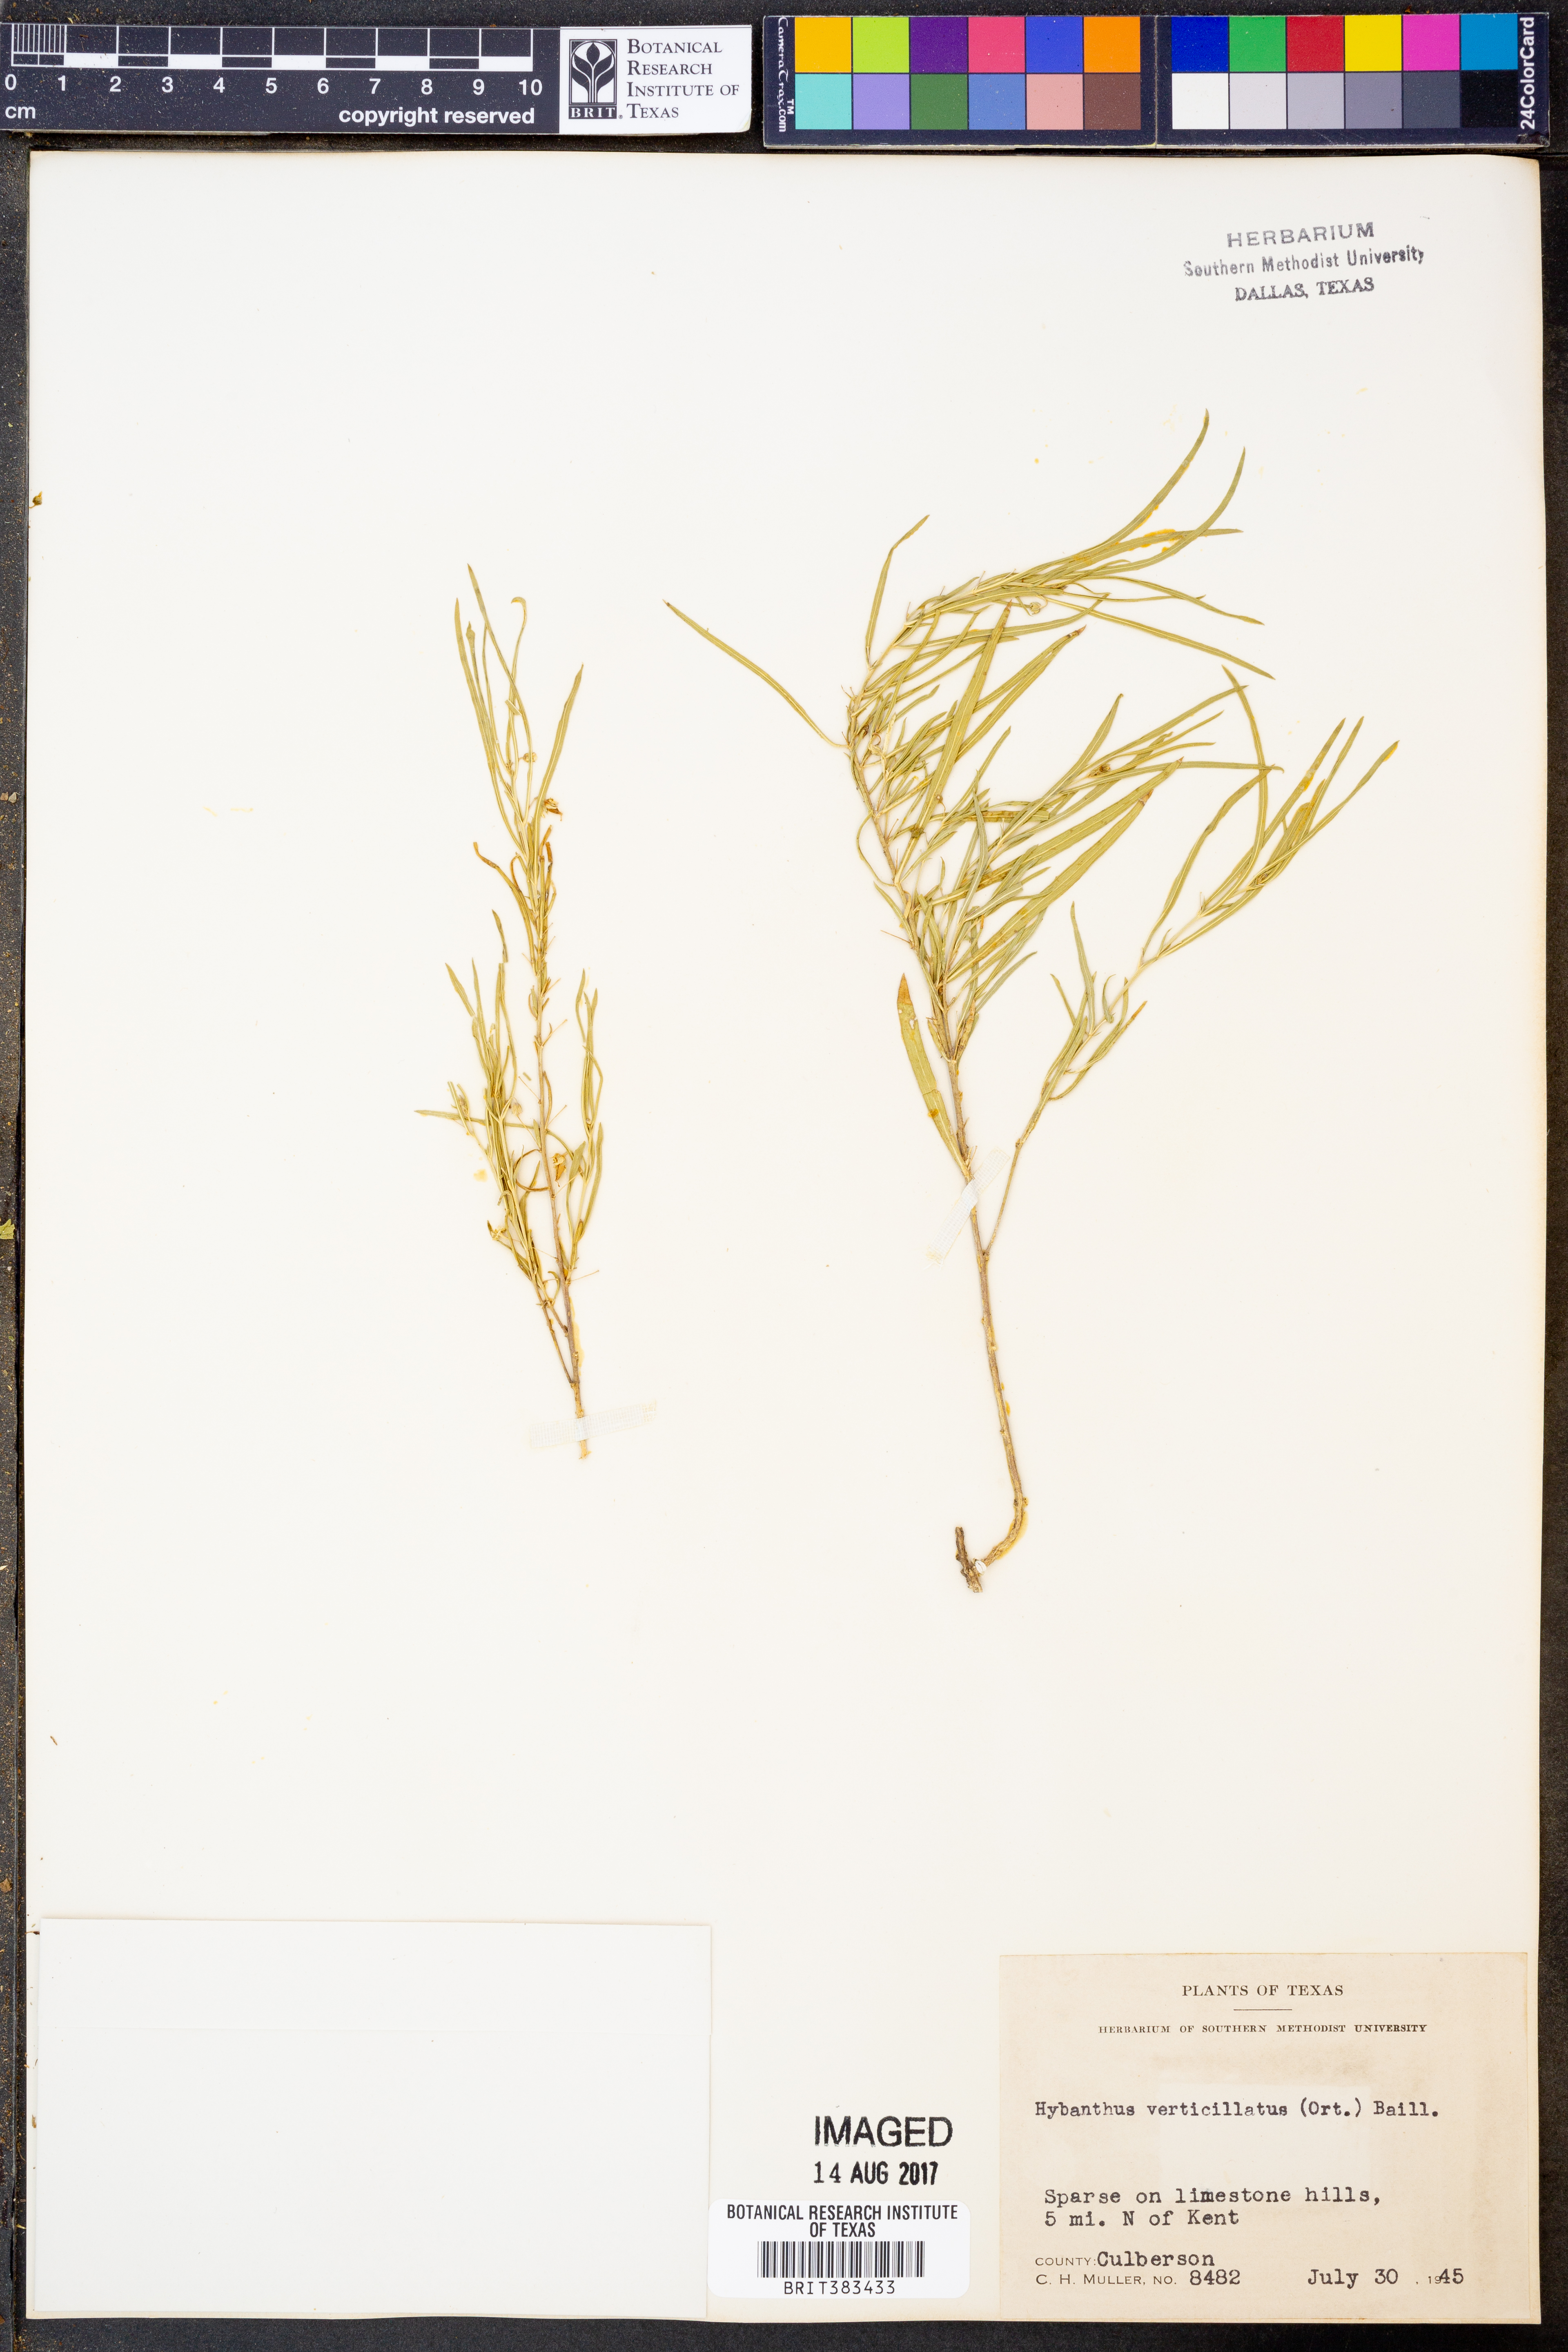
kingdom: Plantae
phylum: Tracheophyta
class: Magnoliopsida
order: Malpighiales
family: Violaceae
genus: Pombalia
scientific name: Pombalia verticillata
